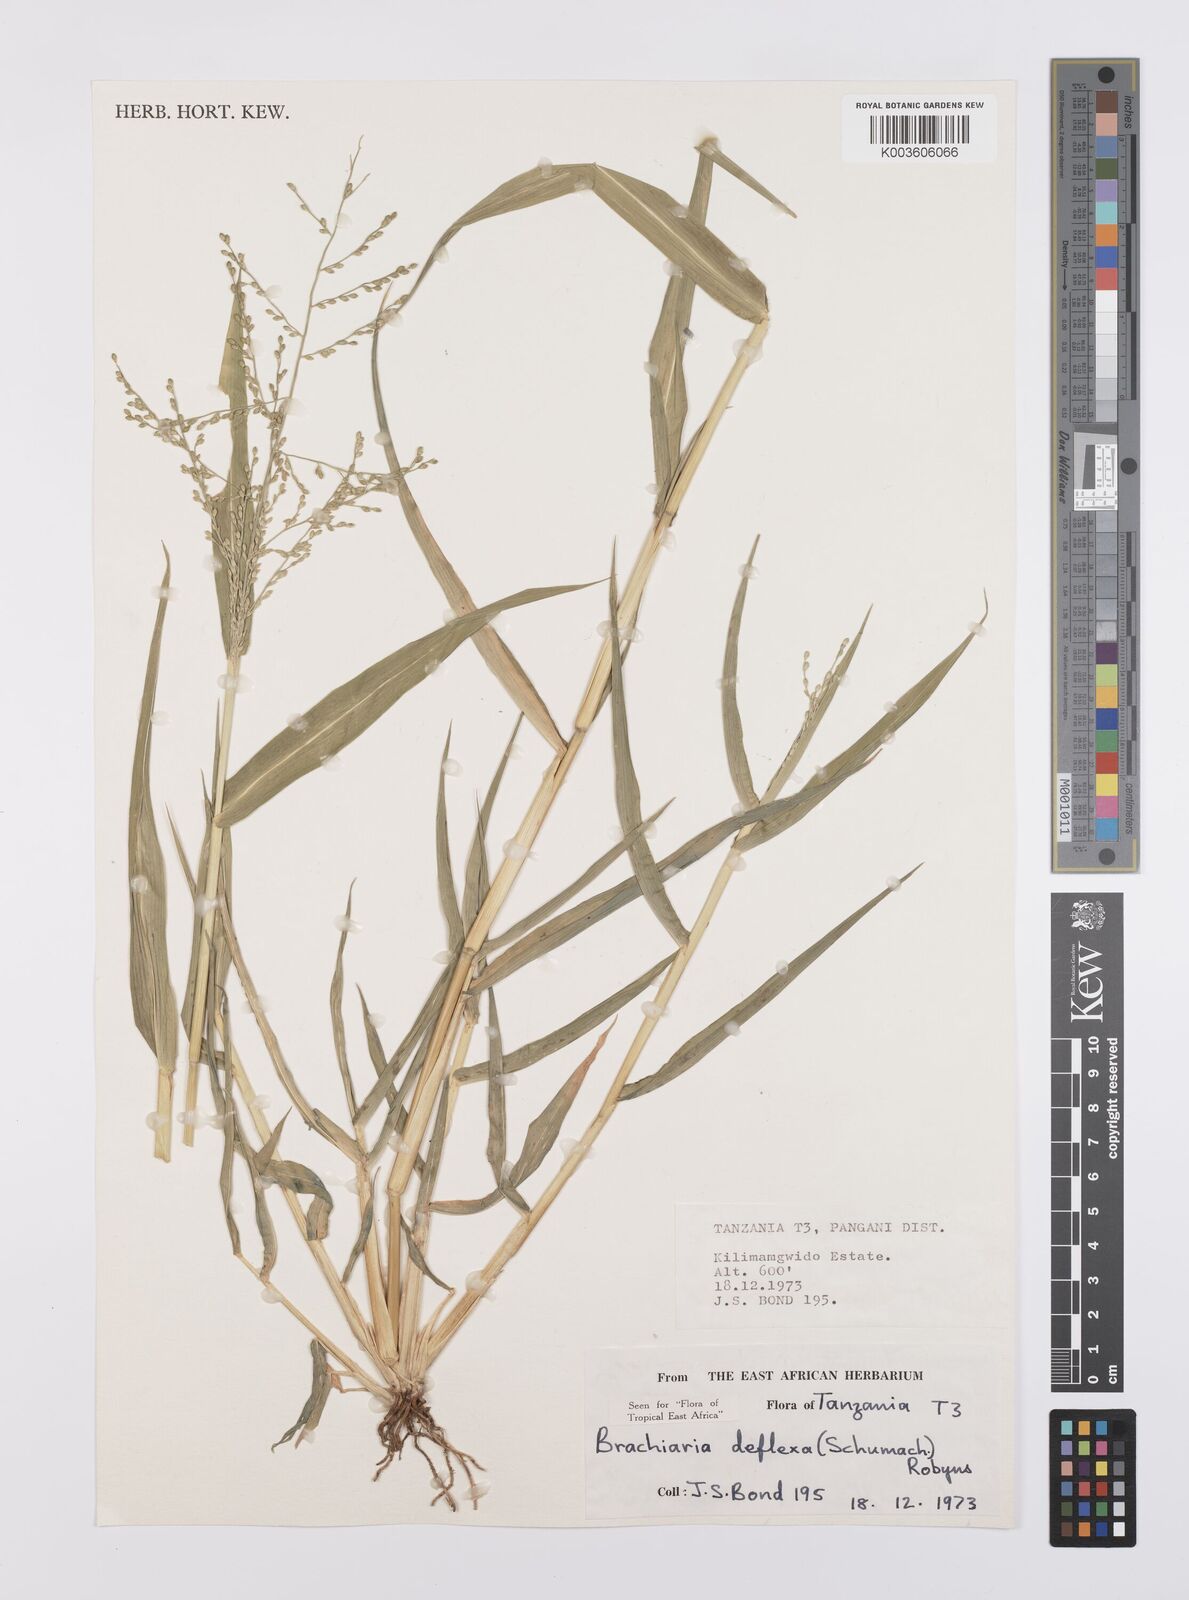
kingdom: Plantae
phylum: Tracheophyta
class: Liliopsida
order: Poales
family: Poaceae
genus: Urochloa
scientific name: Urochloa deflexa
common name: Guinea millet
